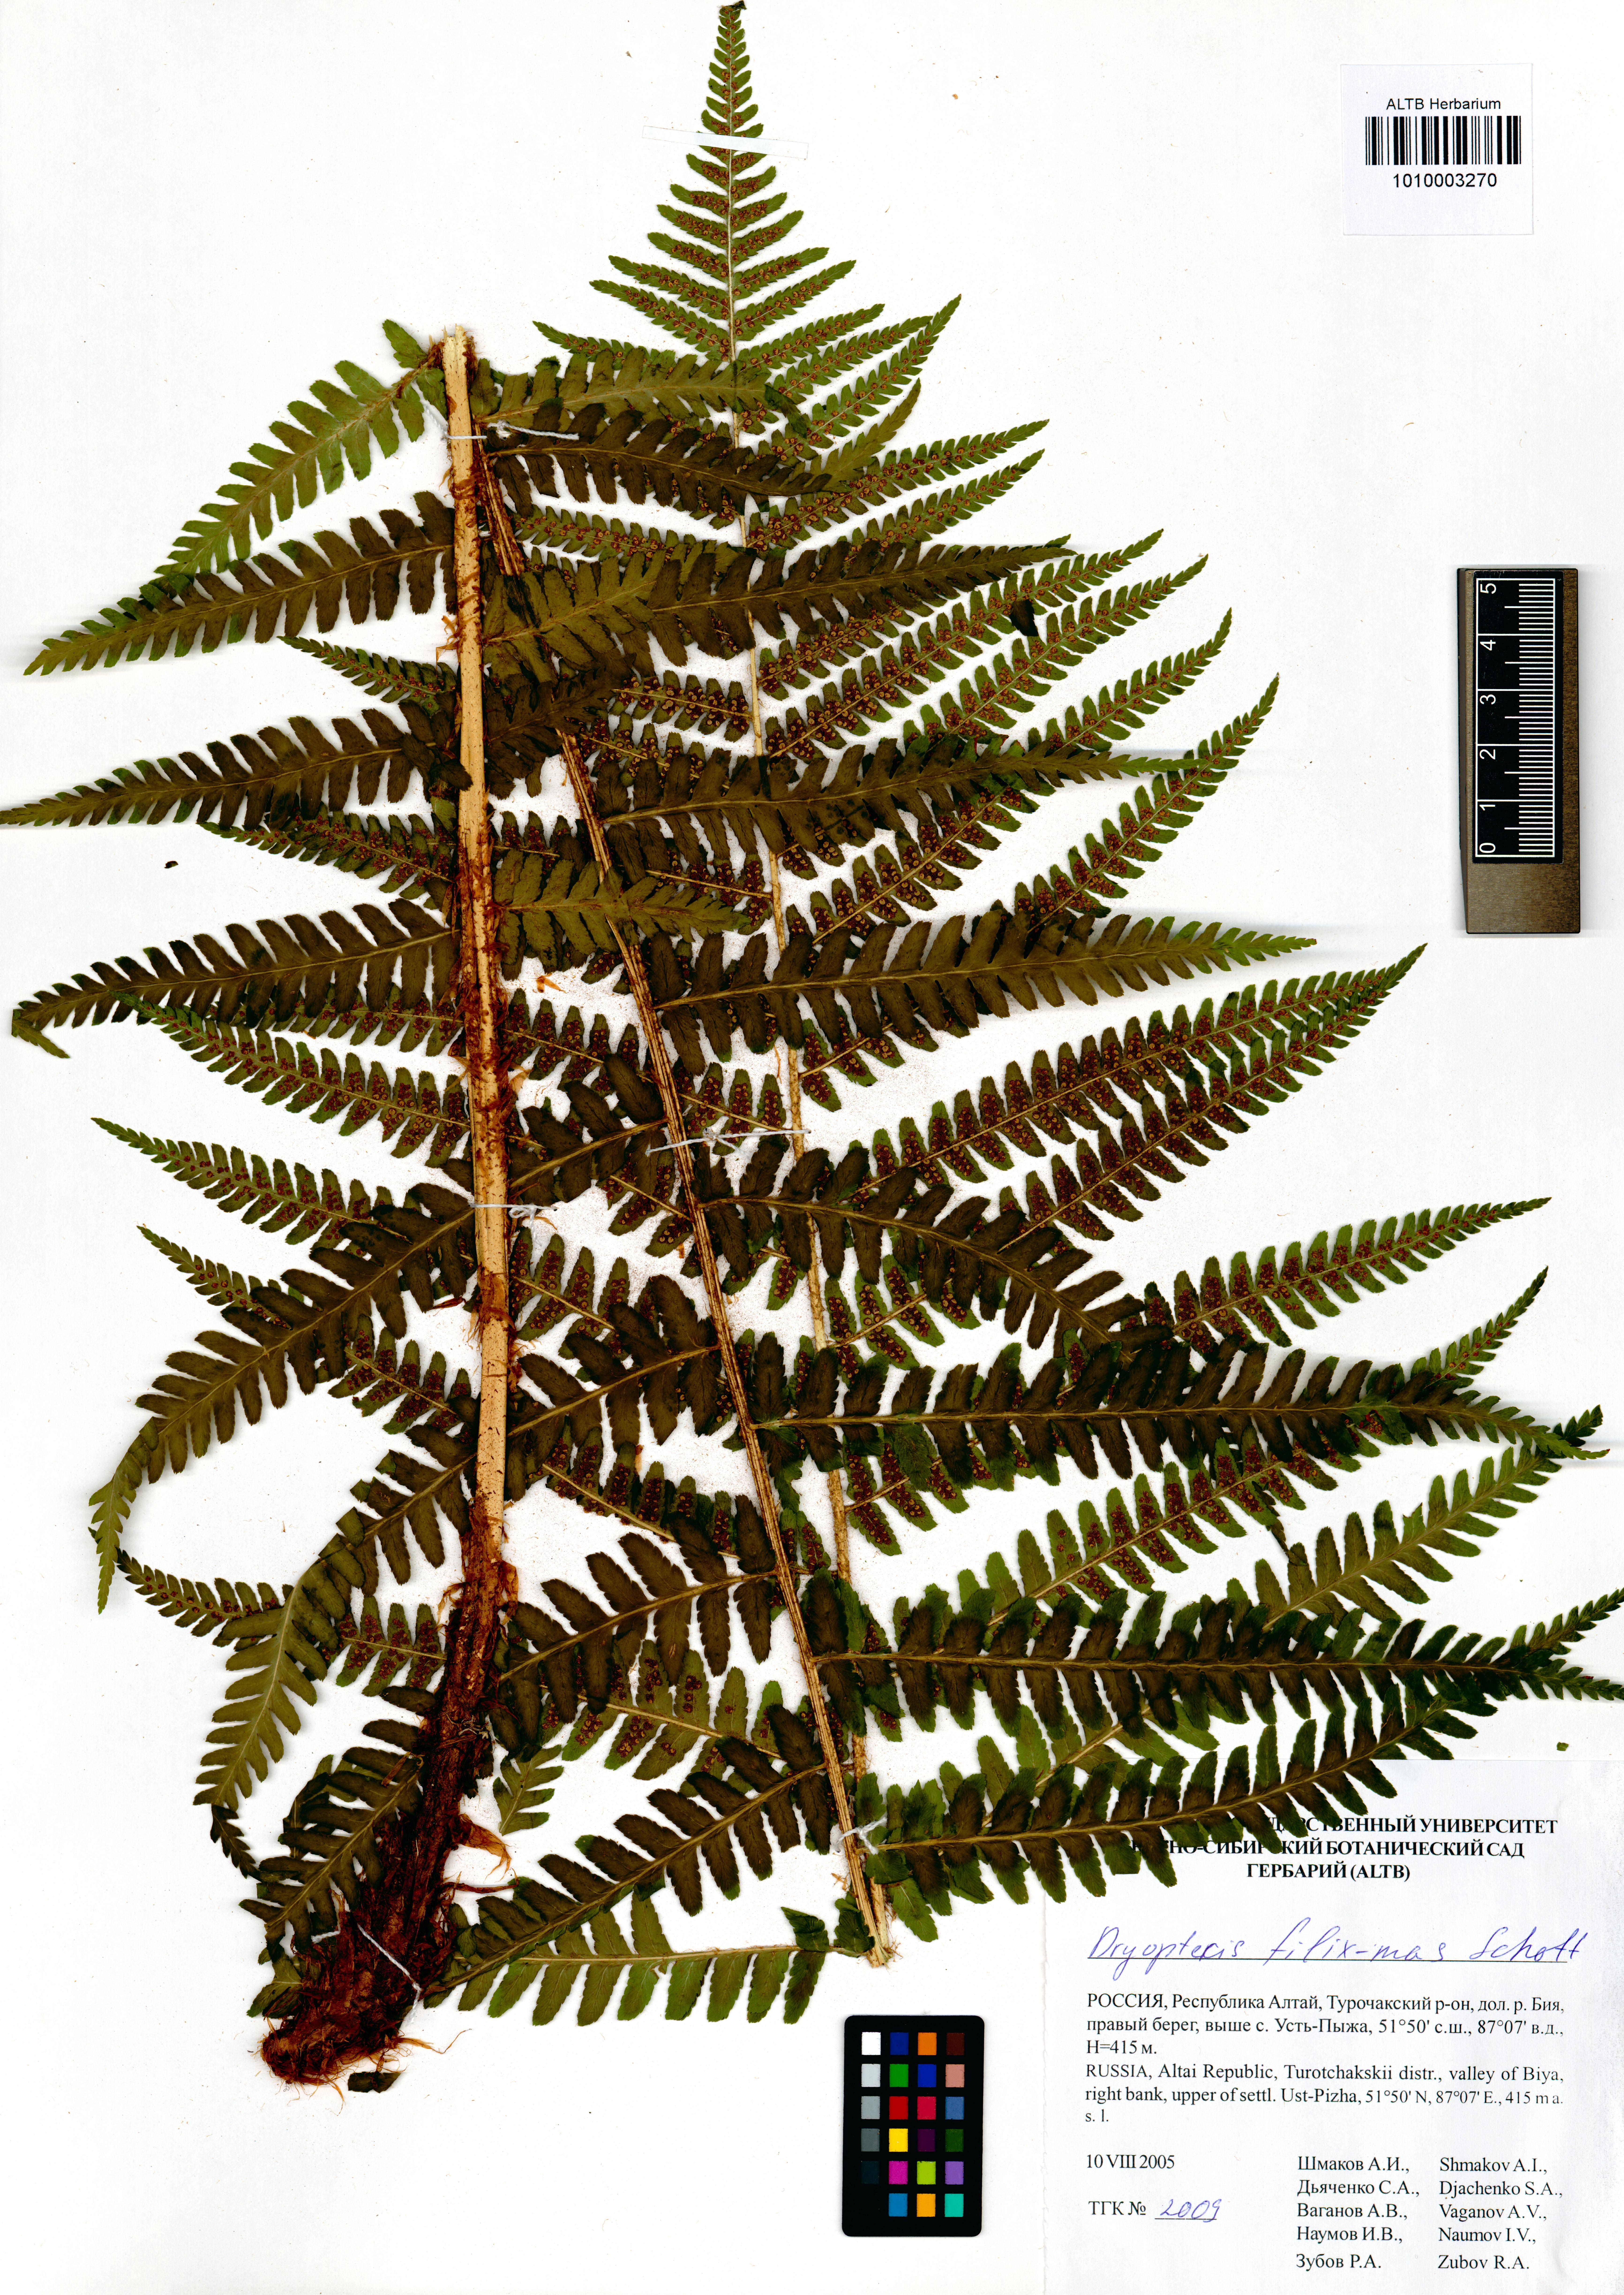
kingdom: Plantae
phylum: Tracheophyta
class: Polypodiopsida
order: Polypodiales
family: Dryopteridaceae
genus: Dryopteris
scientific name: Dryopteris filix-mas
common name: Male fern
